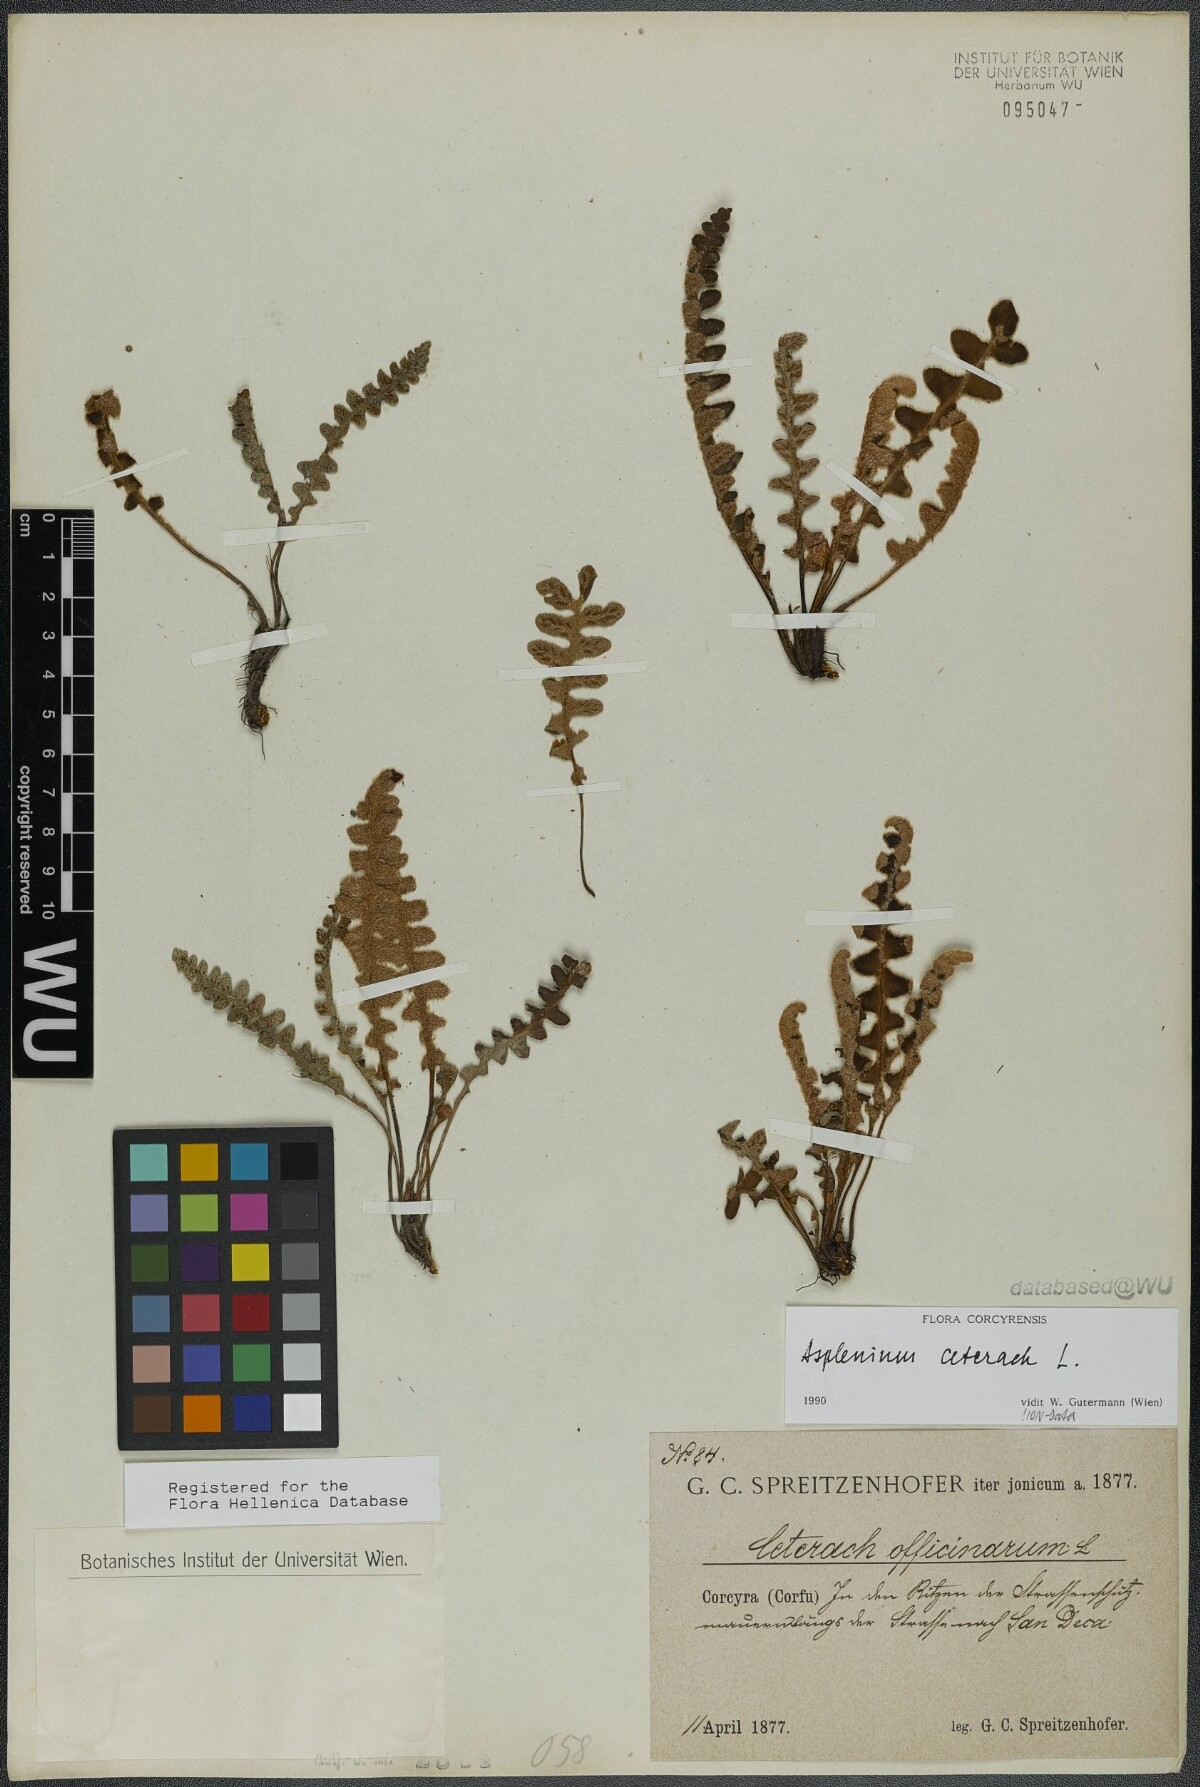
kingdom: Plantae
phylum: Tracheophyta
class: Polypodiopsida
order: Polypodiales
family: Aspleniaceae
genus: Asplenium
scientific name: Asplenium ceterach
